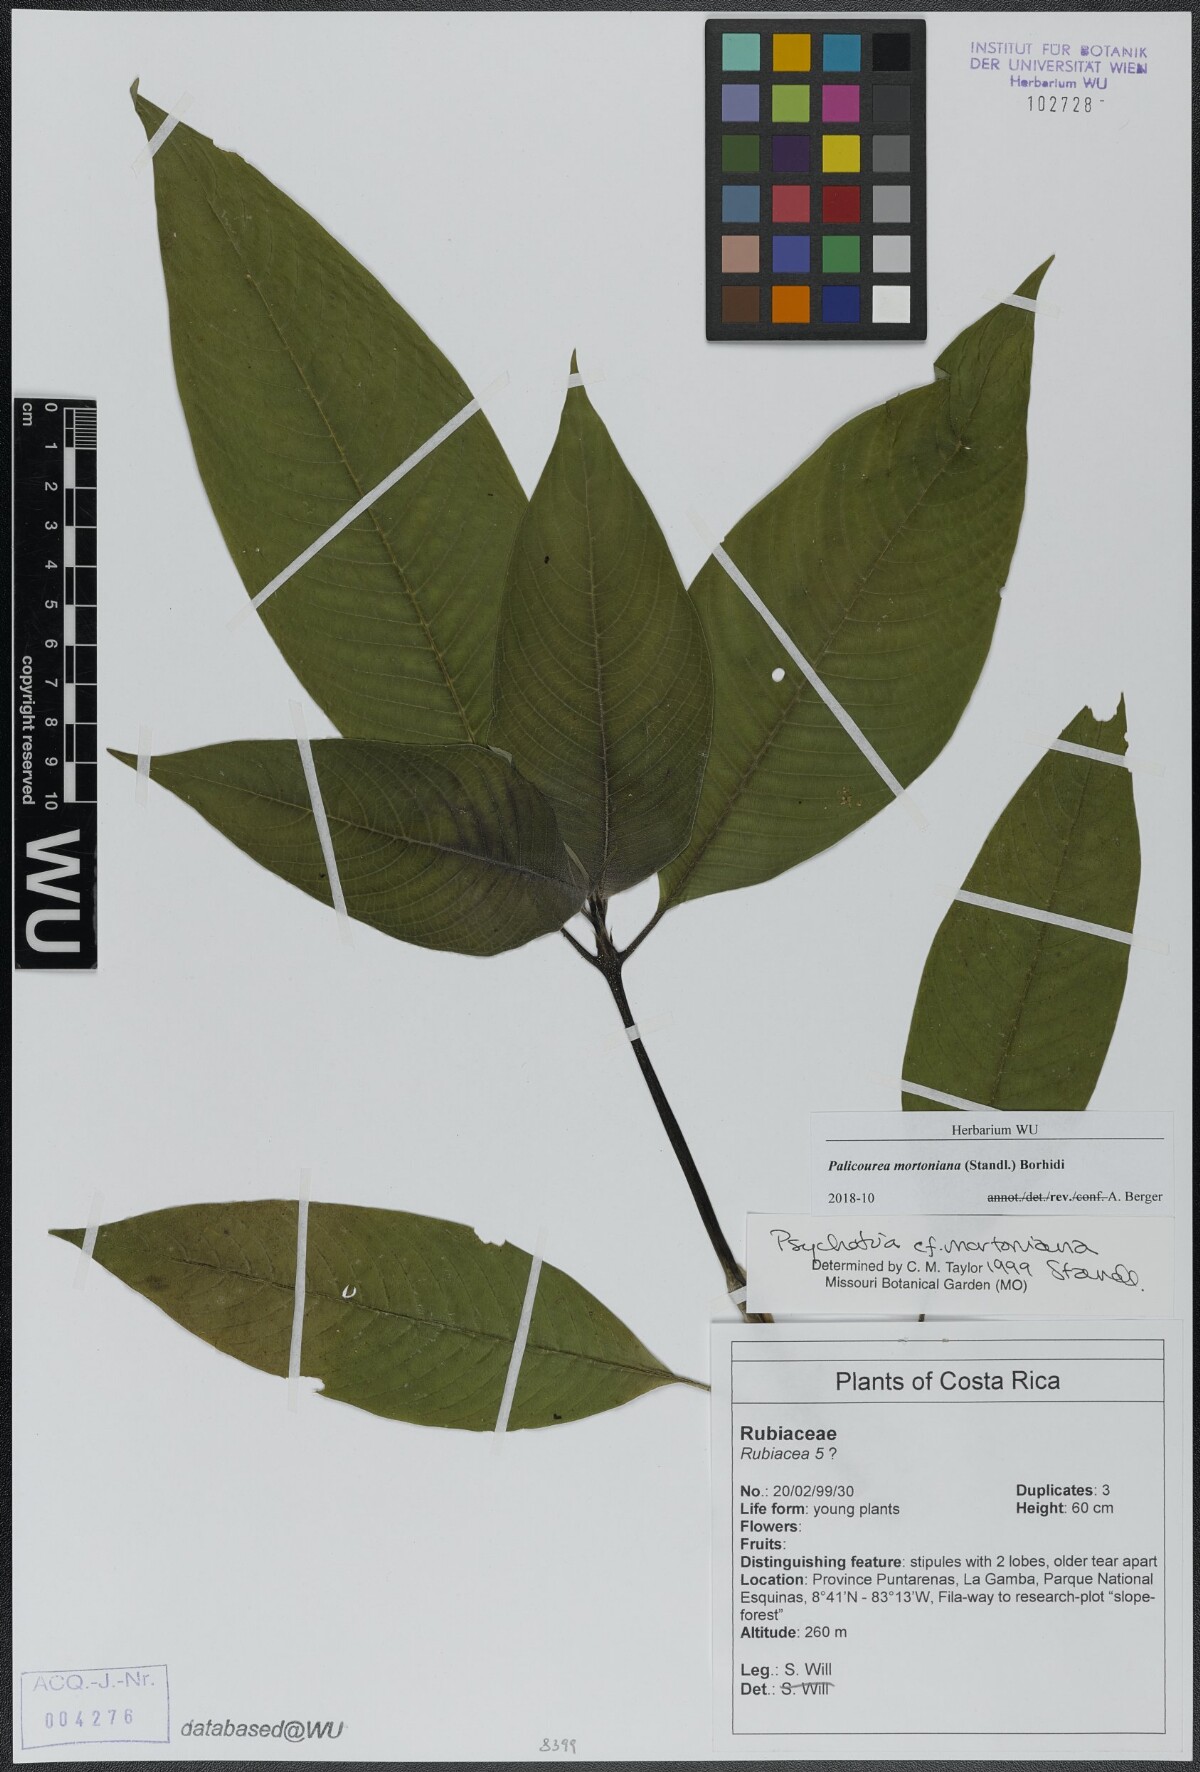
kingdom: Plantae
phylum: Tracheophyta
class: Magnoliopsida
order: Gentianales
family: Rubiaceae
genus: Palicourea
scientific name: Palicourea mortoniana
